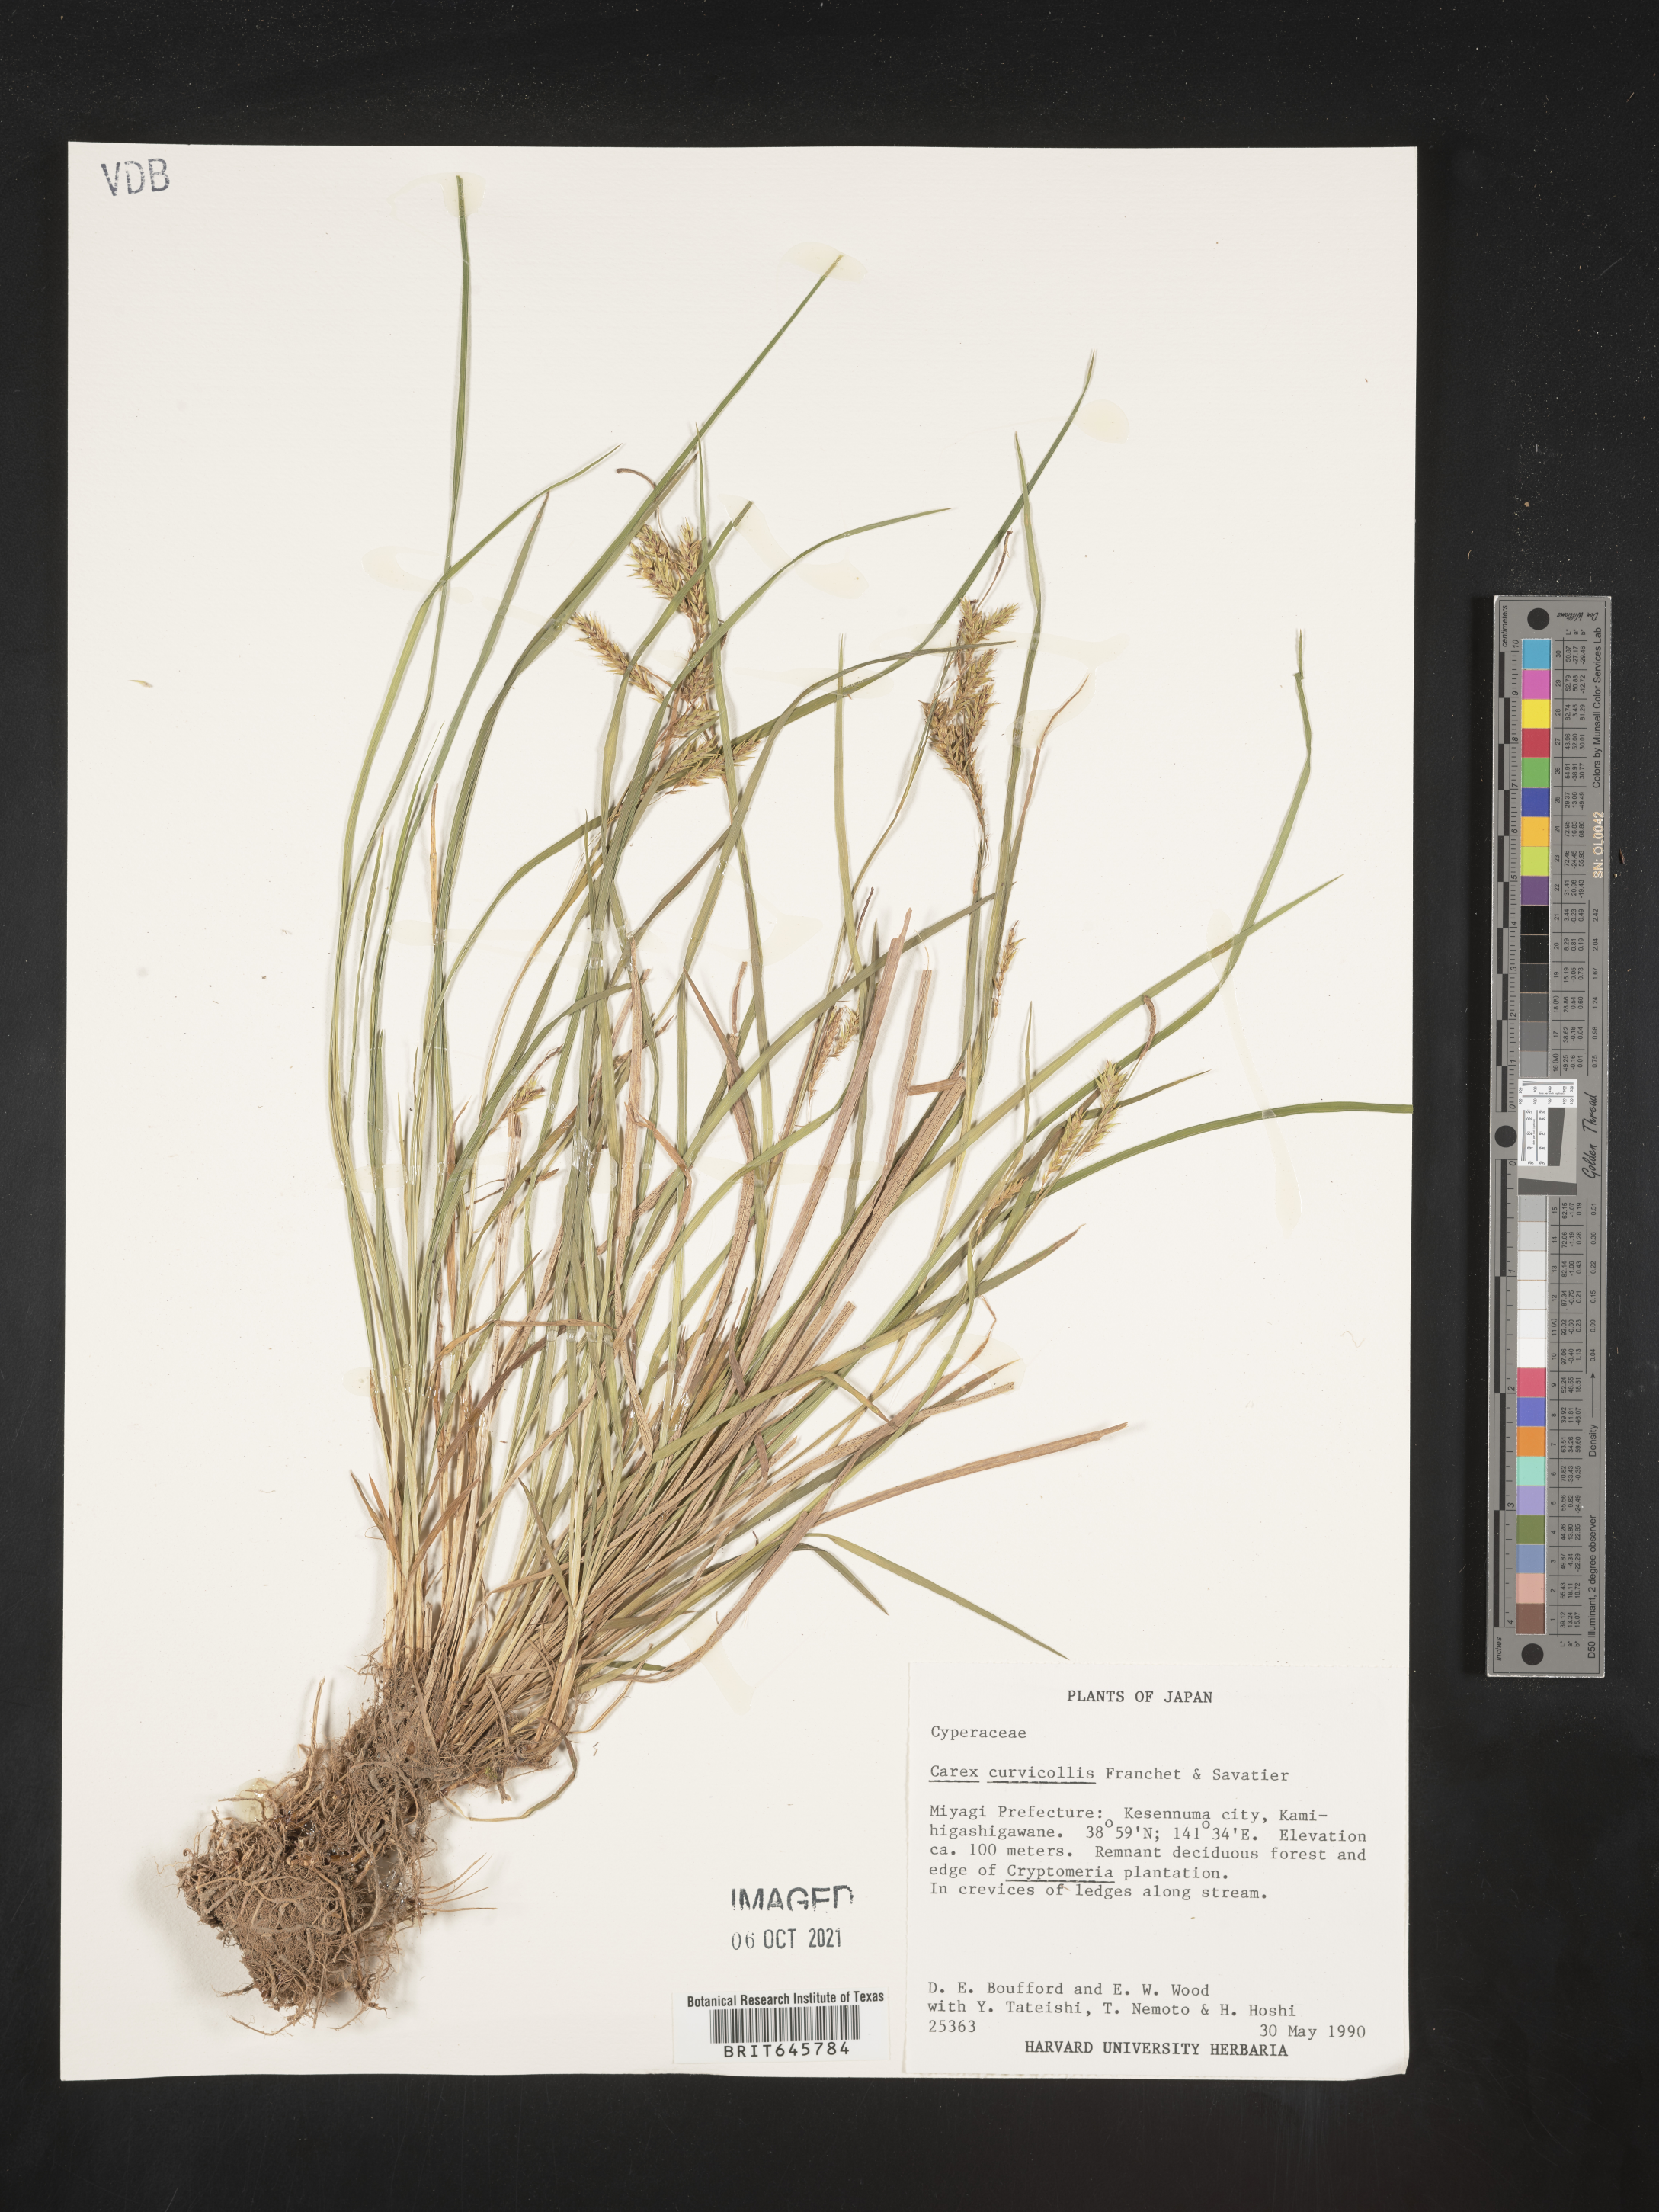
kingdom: Plantae
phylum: Tracheophyta
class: Liliopsida
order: Poales
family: Cyperaceae
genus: Carex
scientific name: Carex curvicollis
